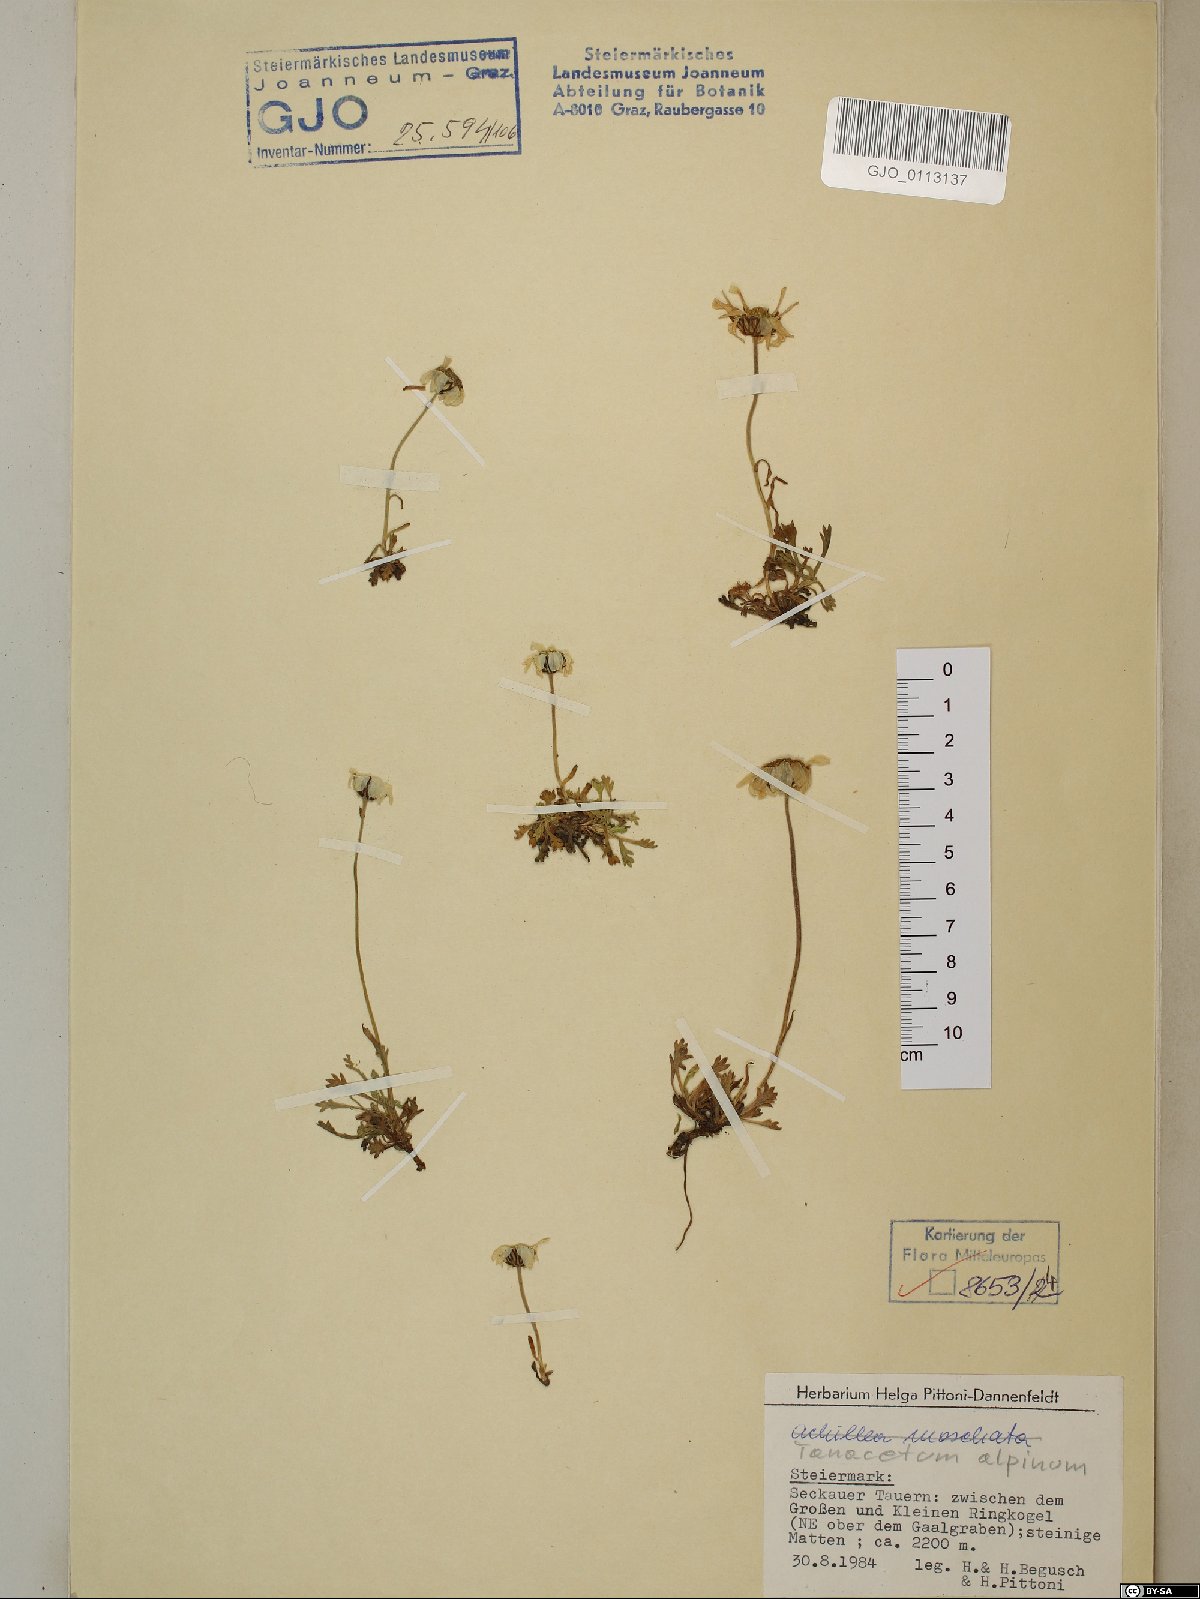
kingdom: Plantae
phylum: Tracheophyta
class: Magnoliopsida
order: Asterales
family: Asteraceae
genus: Leucanthemopsis
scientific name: Leucanthemopsis alpina
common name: Alpine moon daisy
